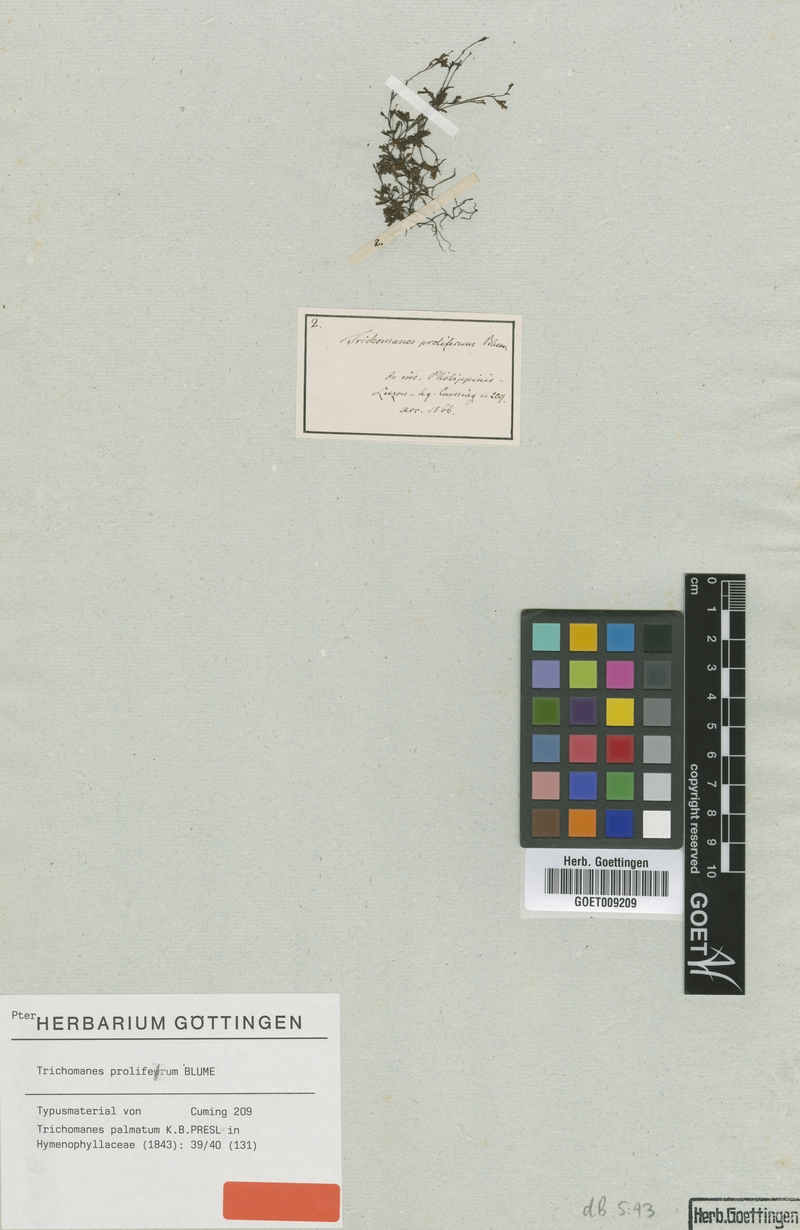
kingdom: Plantae
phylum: Tracheophyta
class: Polypodiopsida
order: Hymenophyllales
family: Hymenophyllaceae
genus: Crepidomanes
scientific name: Crepidomanes parvulum
